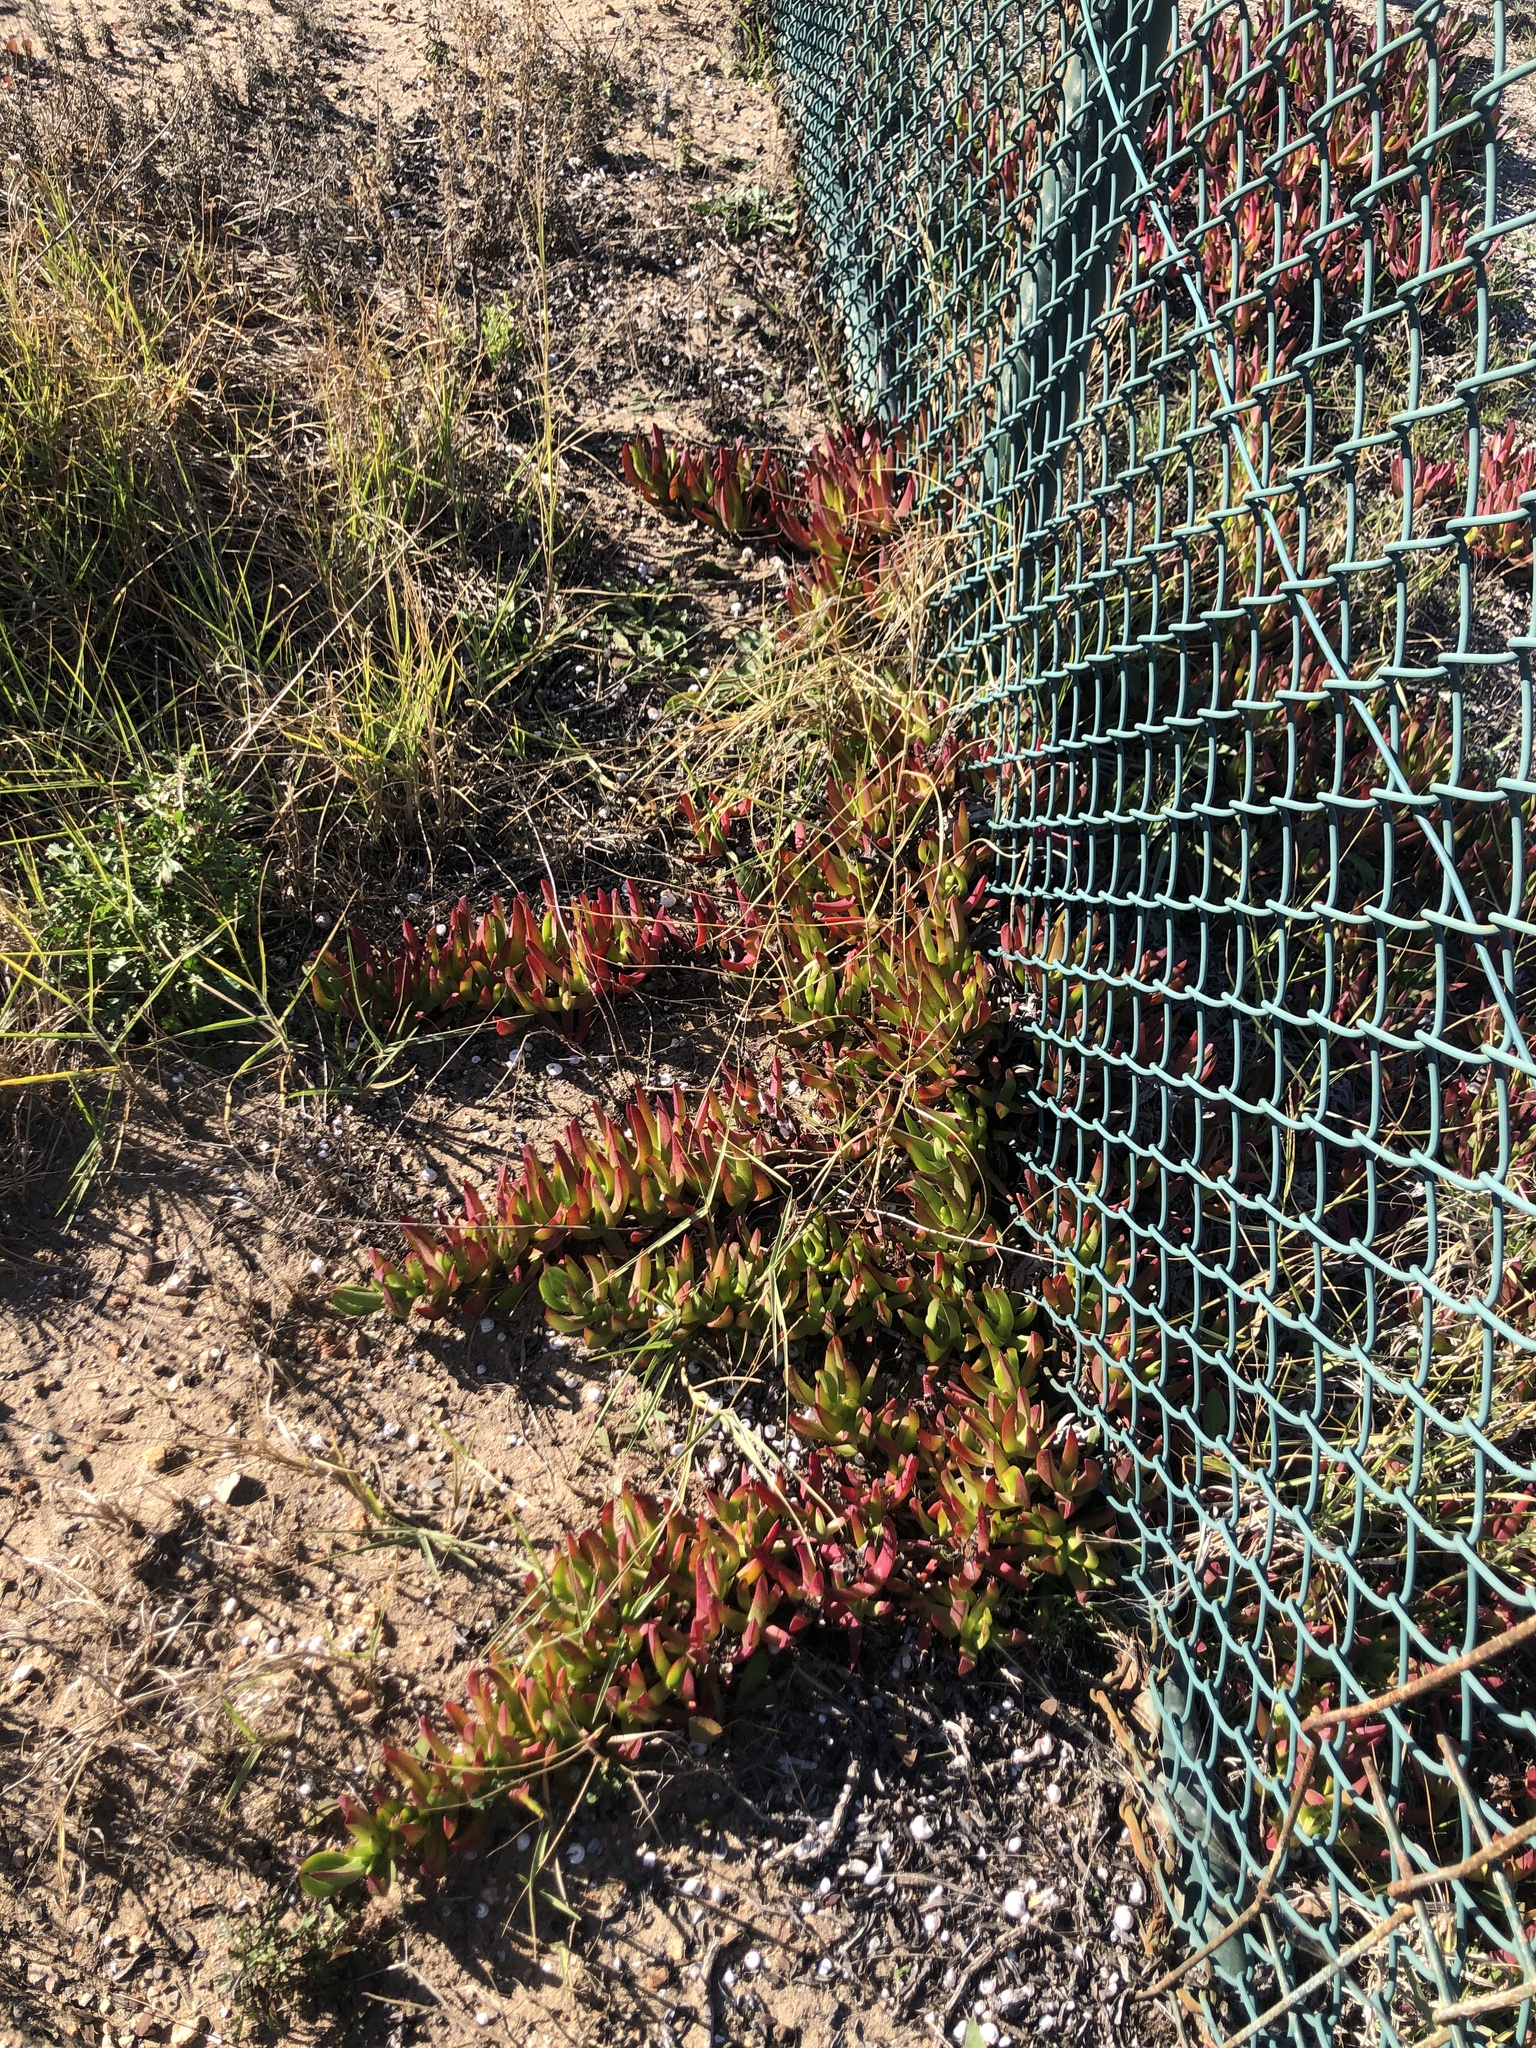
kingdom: Plantae
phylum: Tracheophyta
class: Magnoliopsida
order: Caryophyllales
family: Aizoaceae
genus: Carpobrotus
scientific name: Carpobrotus edulis
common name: Hottentot-fig
